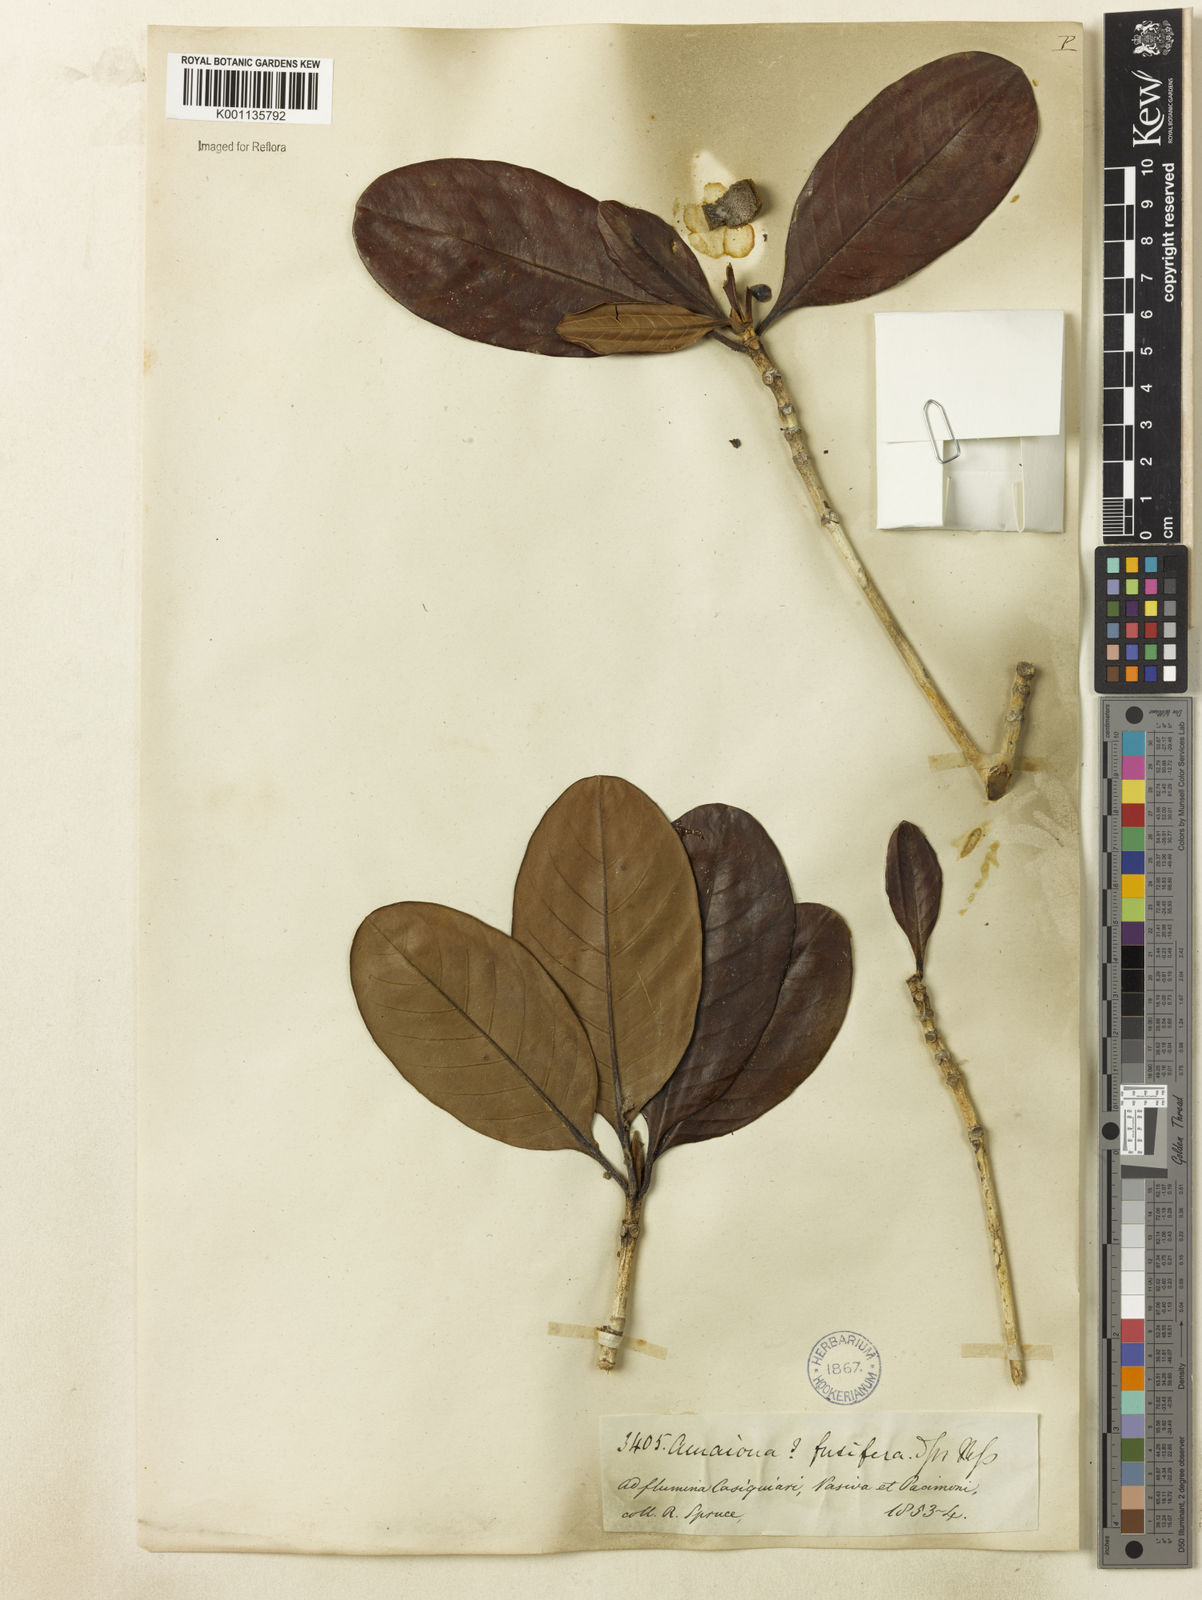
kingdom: Plantae
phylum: Tracheophyta
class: Magnoliopsida
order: Gentianales
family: Rubiaceae
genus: Duroia
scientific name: Duroia fusifera
